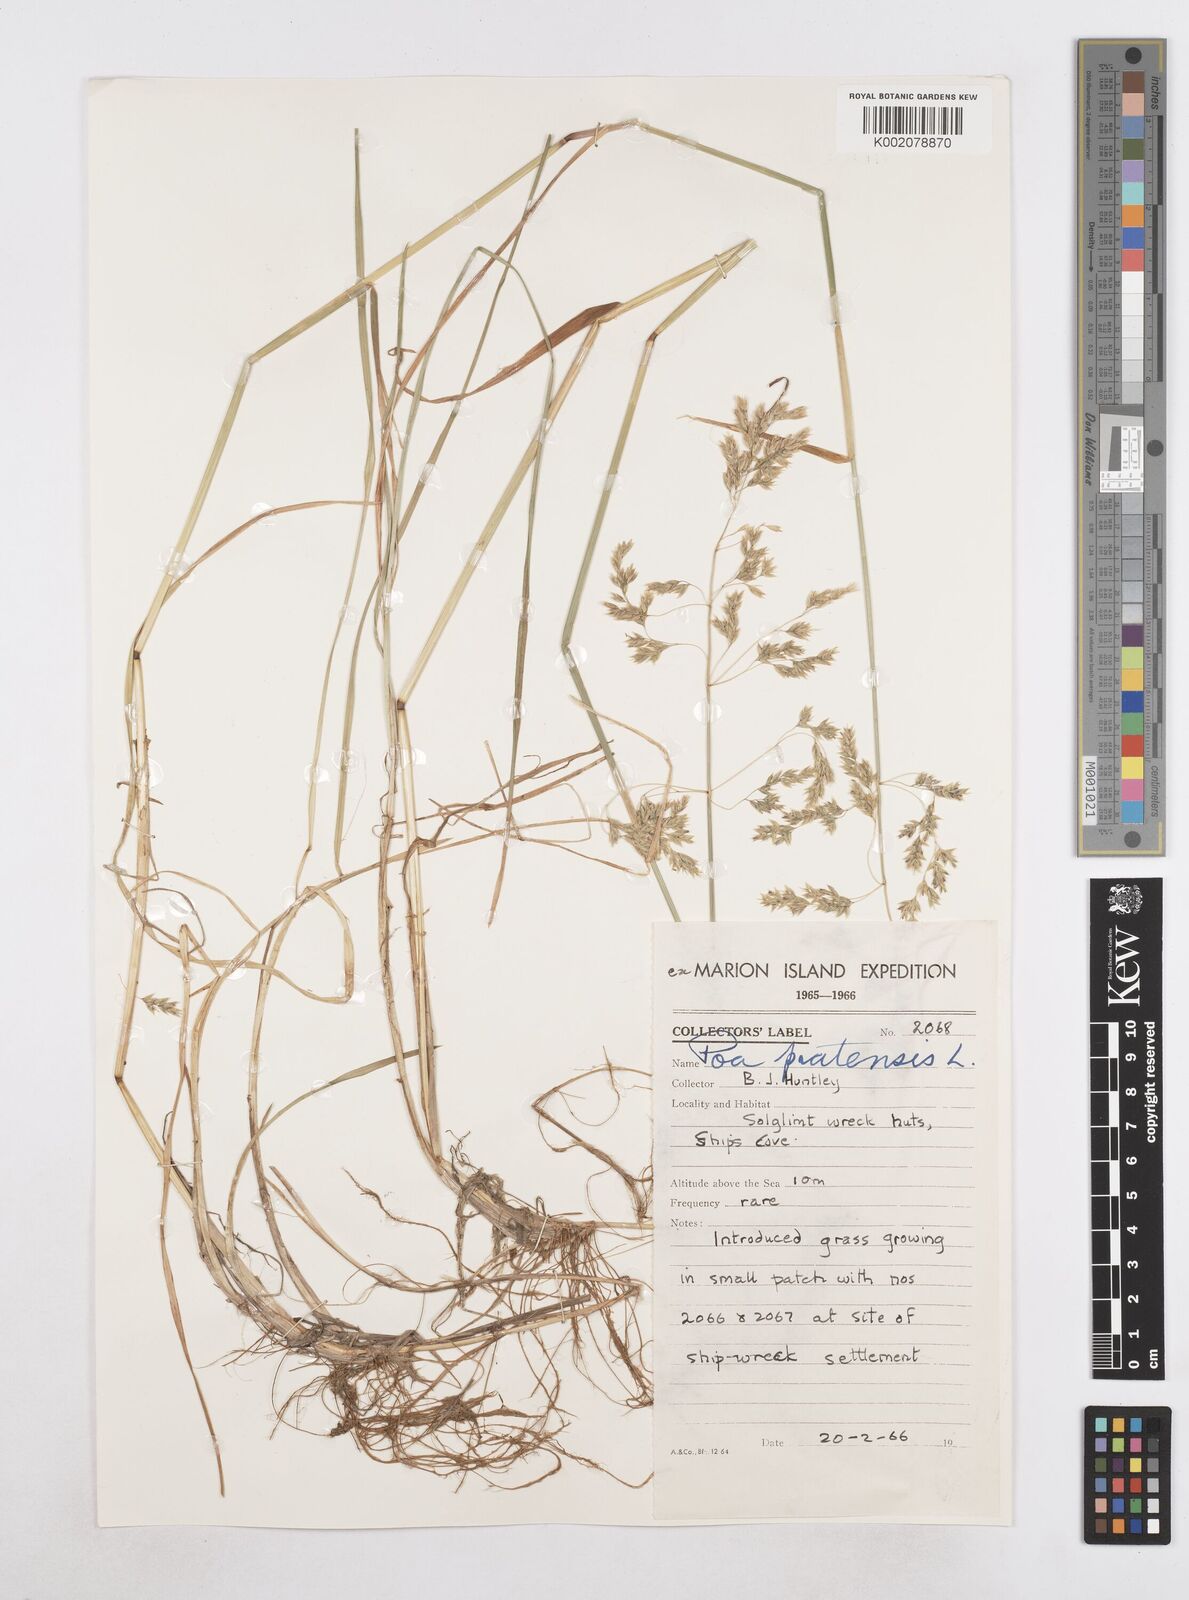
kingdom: Plantae
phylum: Tracheophyta
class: Liliopsida
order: Poales
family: Poaceae
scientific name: Poaceae
